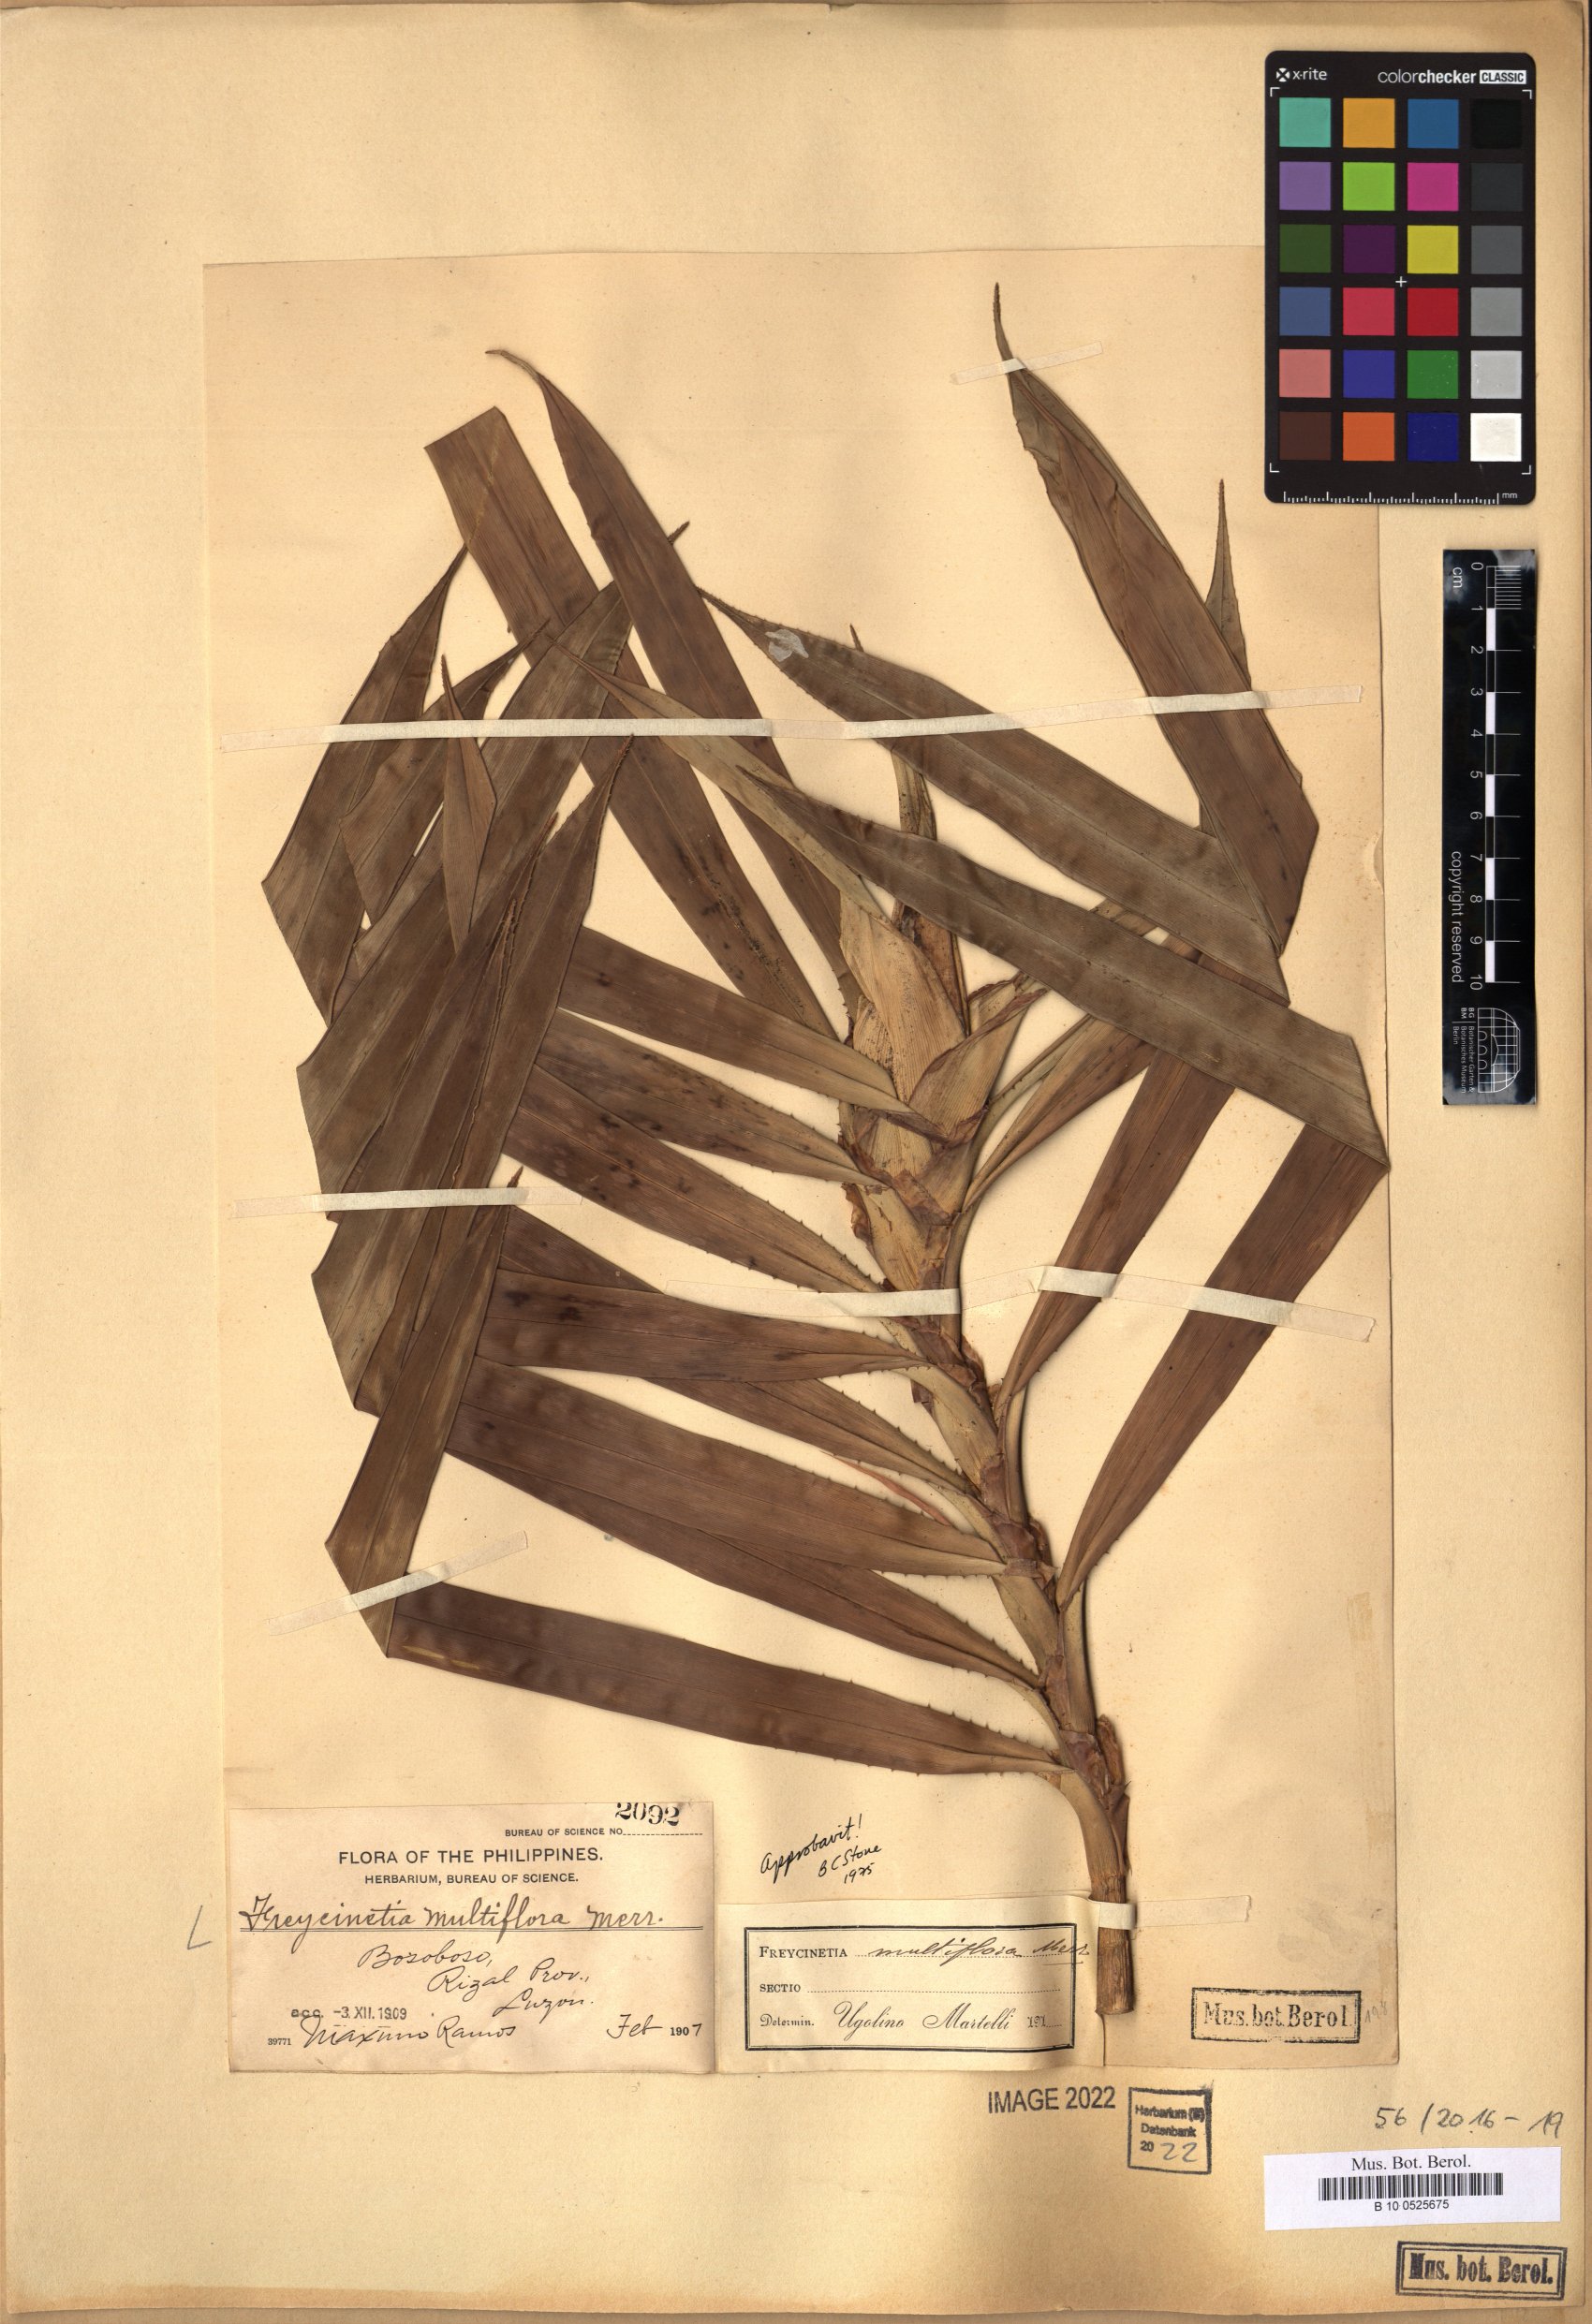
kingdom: Plantae
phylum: Tracheophyta
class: Liliopsida
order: Pandanales
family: Pandanaceae
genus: Freycinetia
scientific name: Freycinetia multiflora
